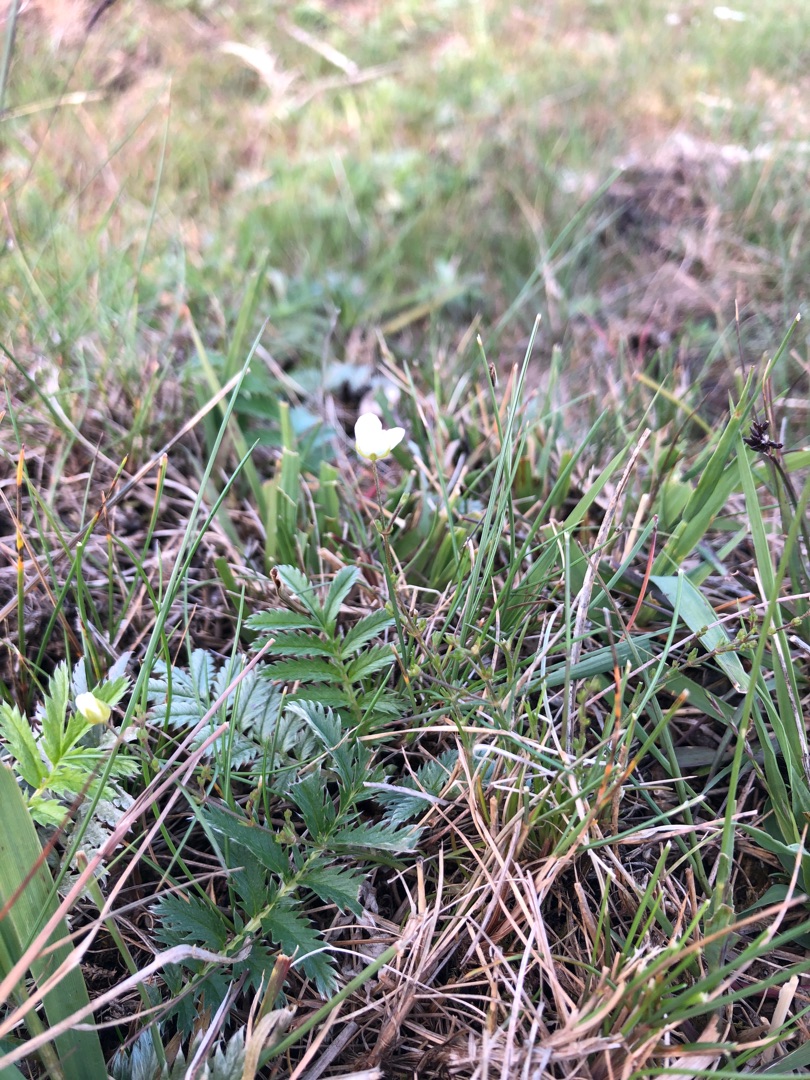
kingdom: Plantae
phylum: Tracheophyta
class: Magnoliopsida
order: Caryophyllales
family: Caryophyllaceae
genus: Sagina
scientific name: Sagina nodosa
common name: Knude-firling
